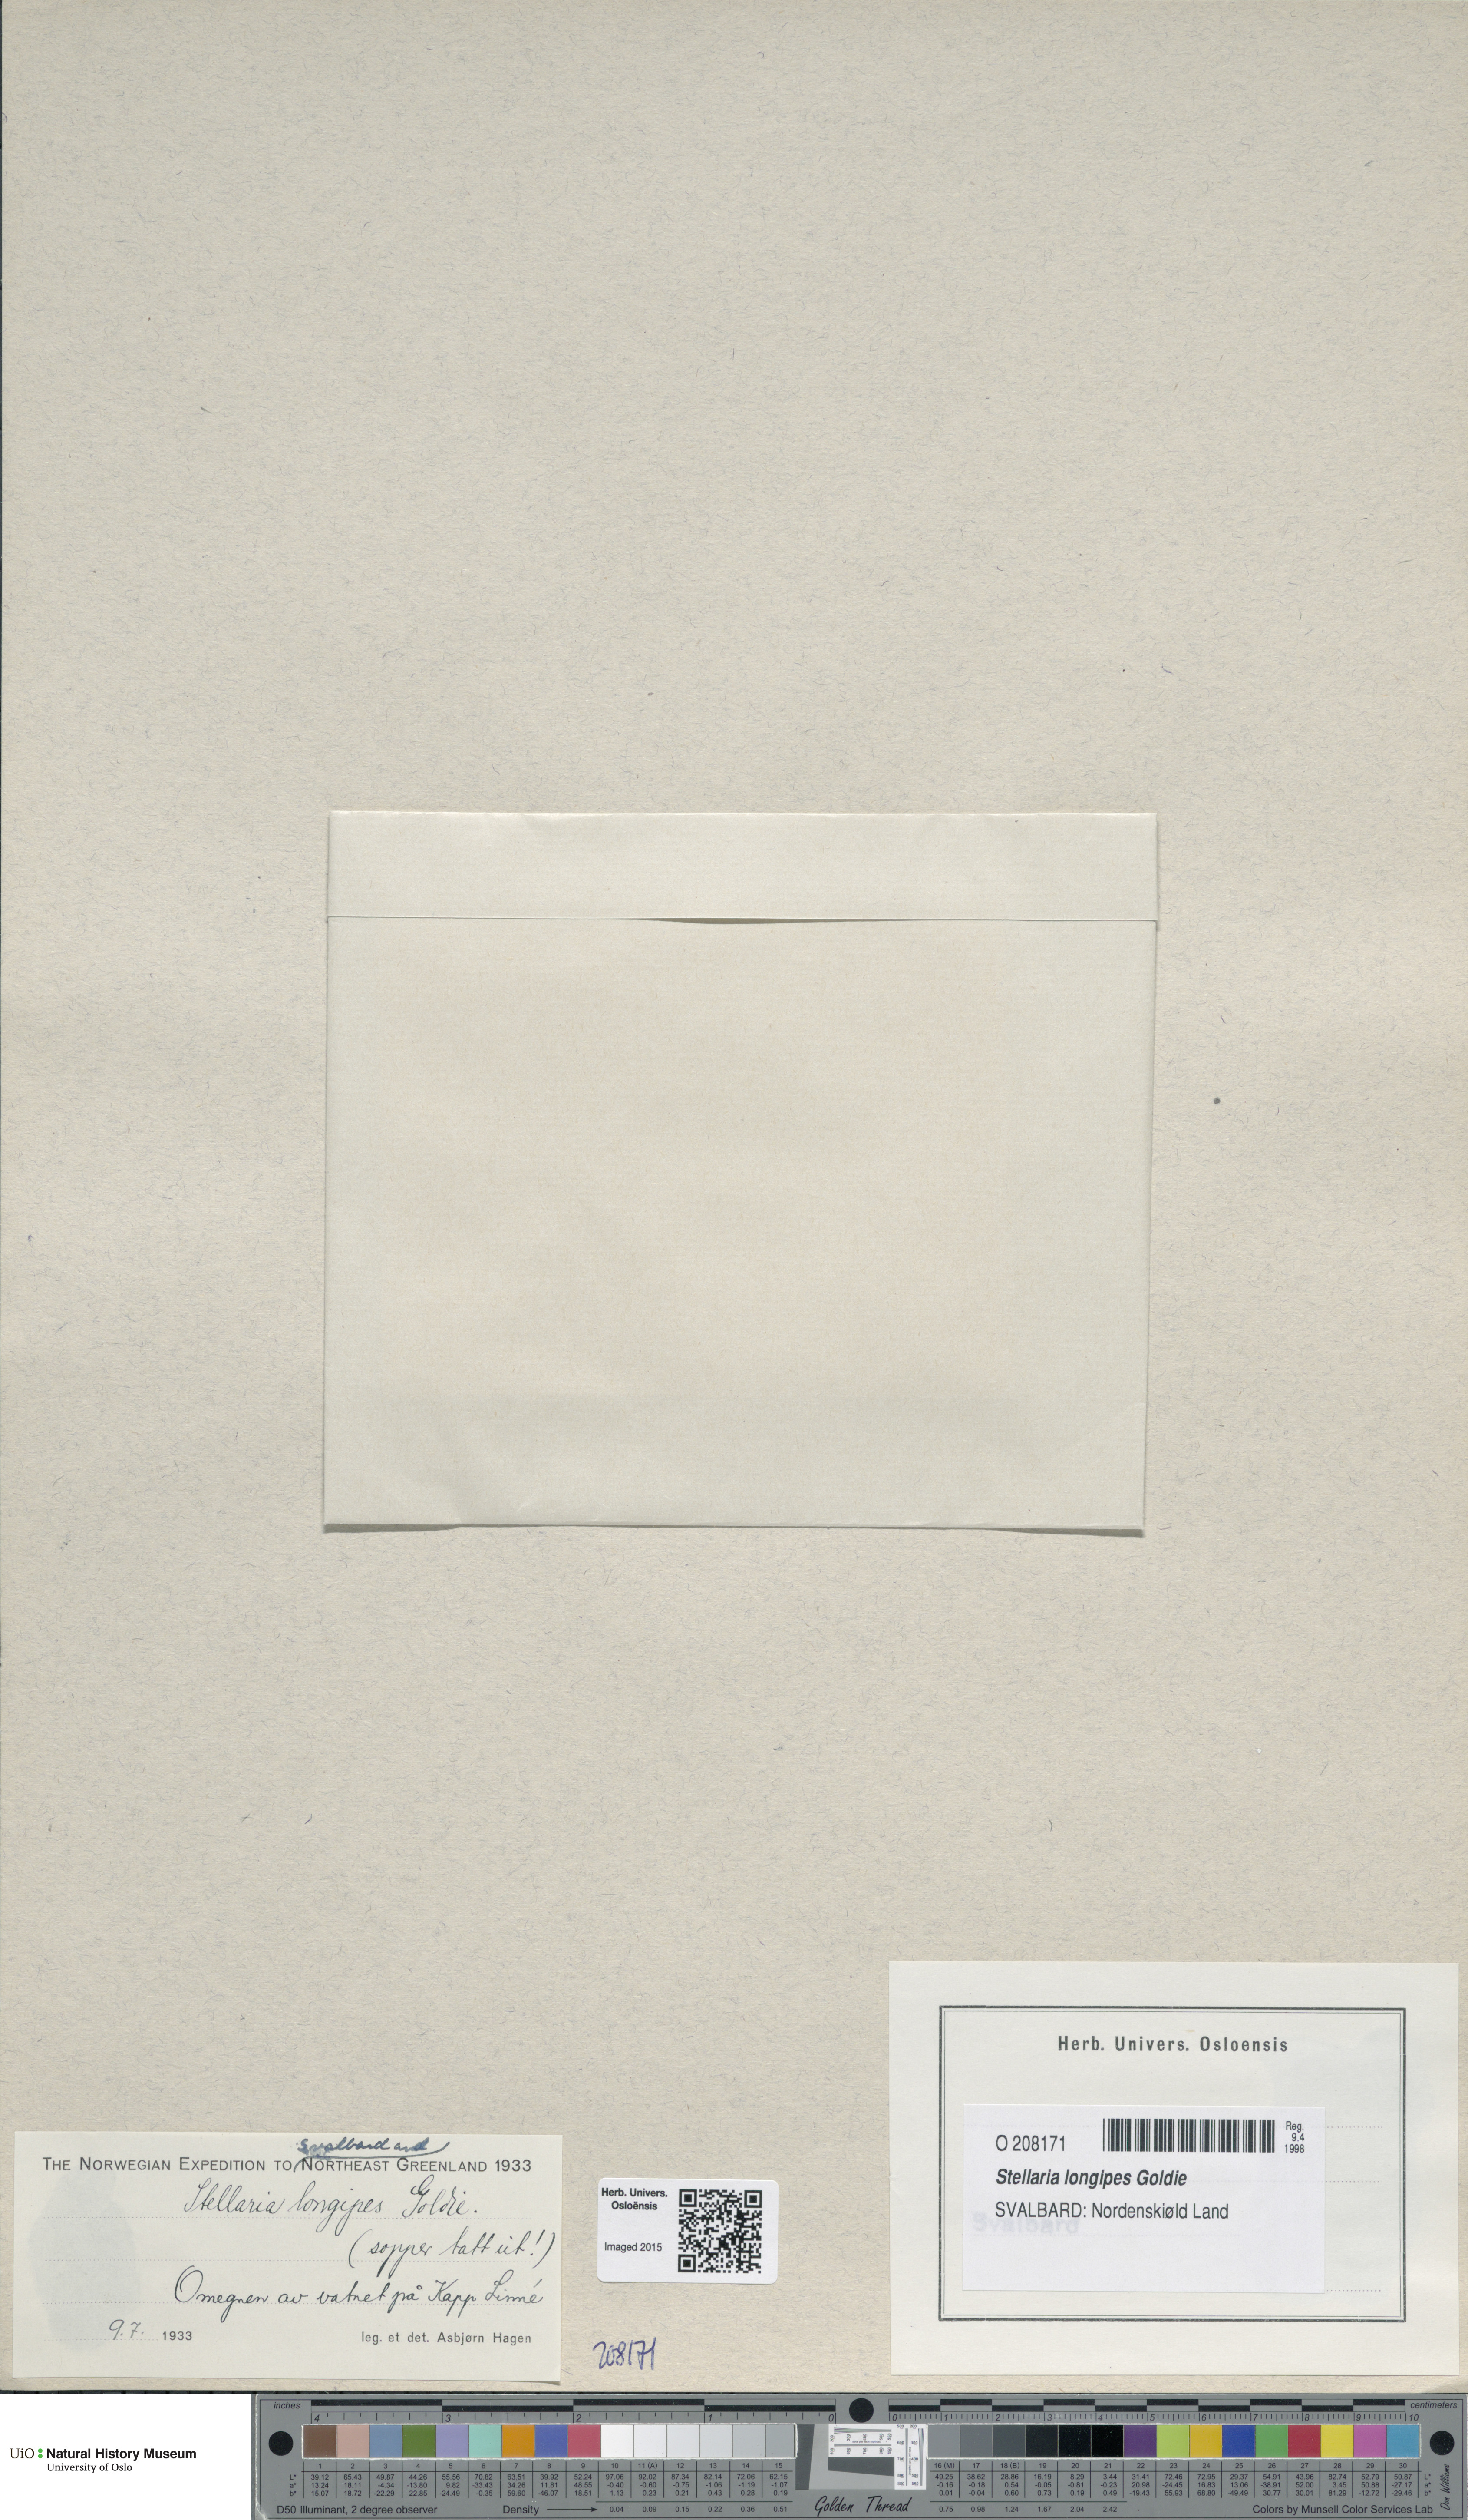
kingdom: Plantae
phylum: Tracheophyta
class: Magnoliopsida
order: Caryophyllales
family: Caryophyllaceae
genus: Stellaria
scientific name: Stellaria longipes
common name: Goldie's starwort
